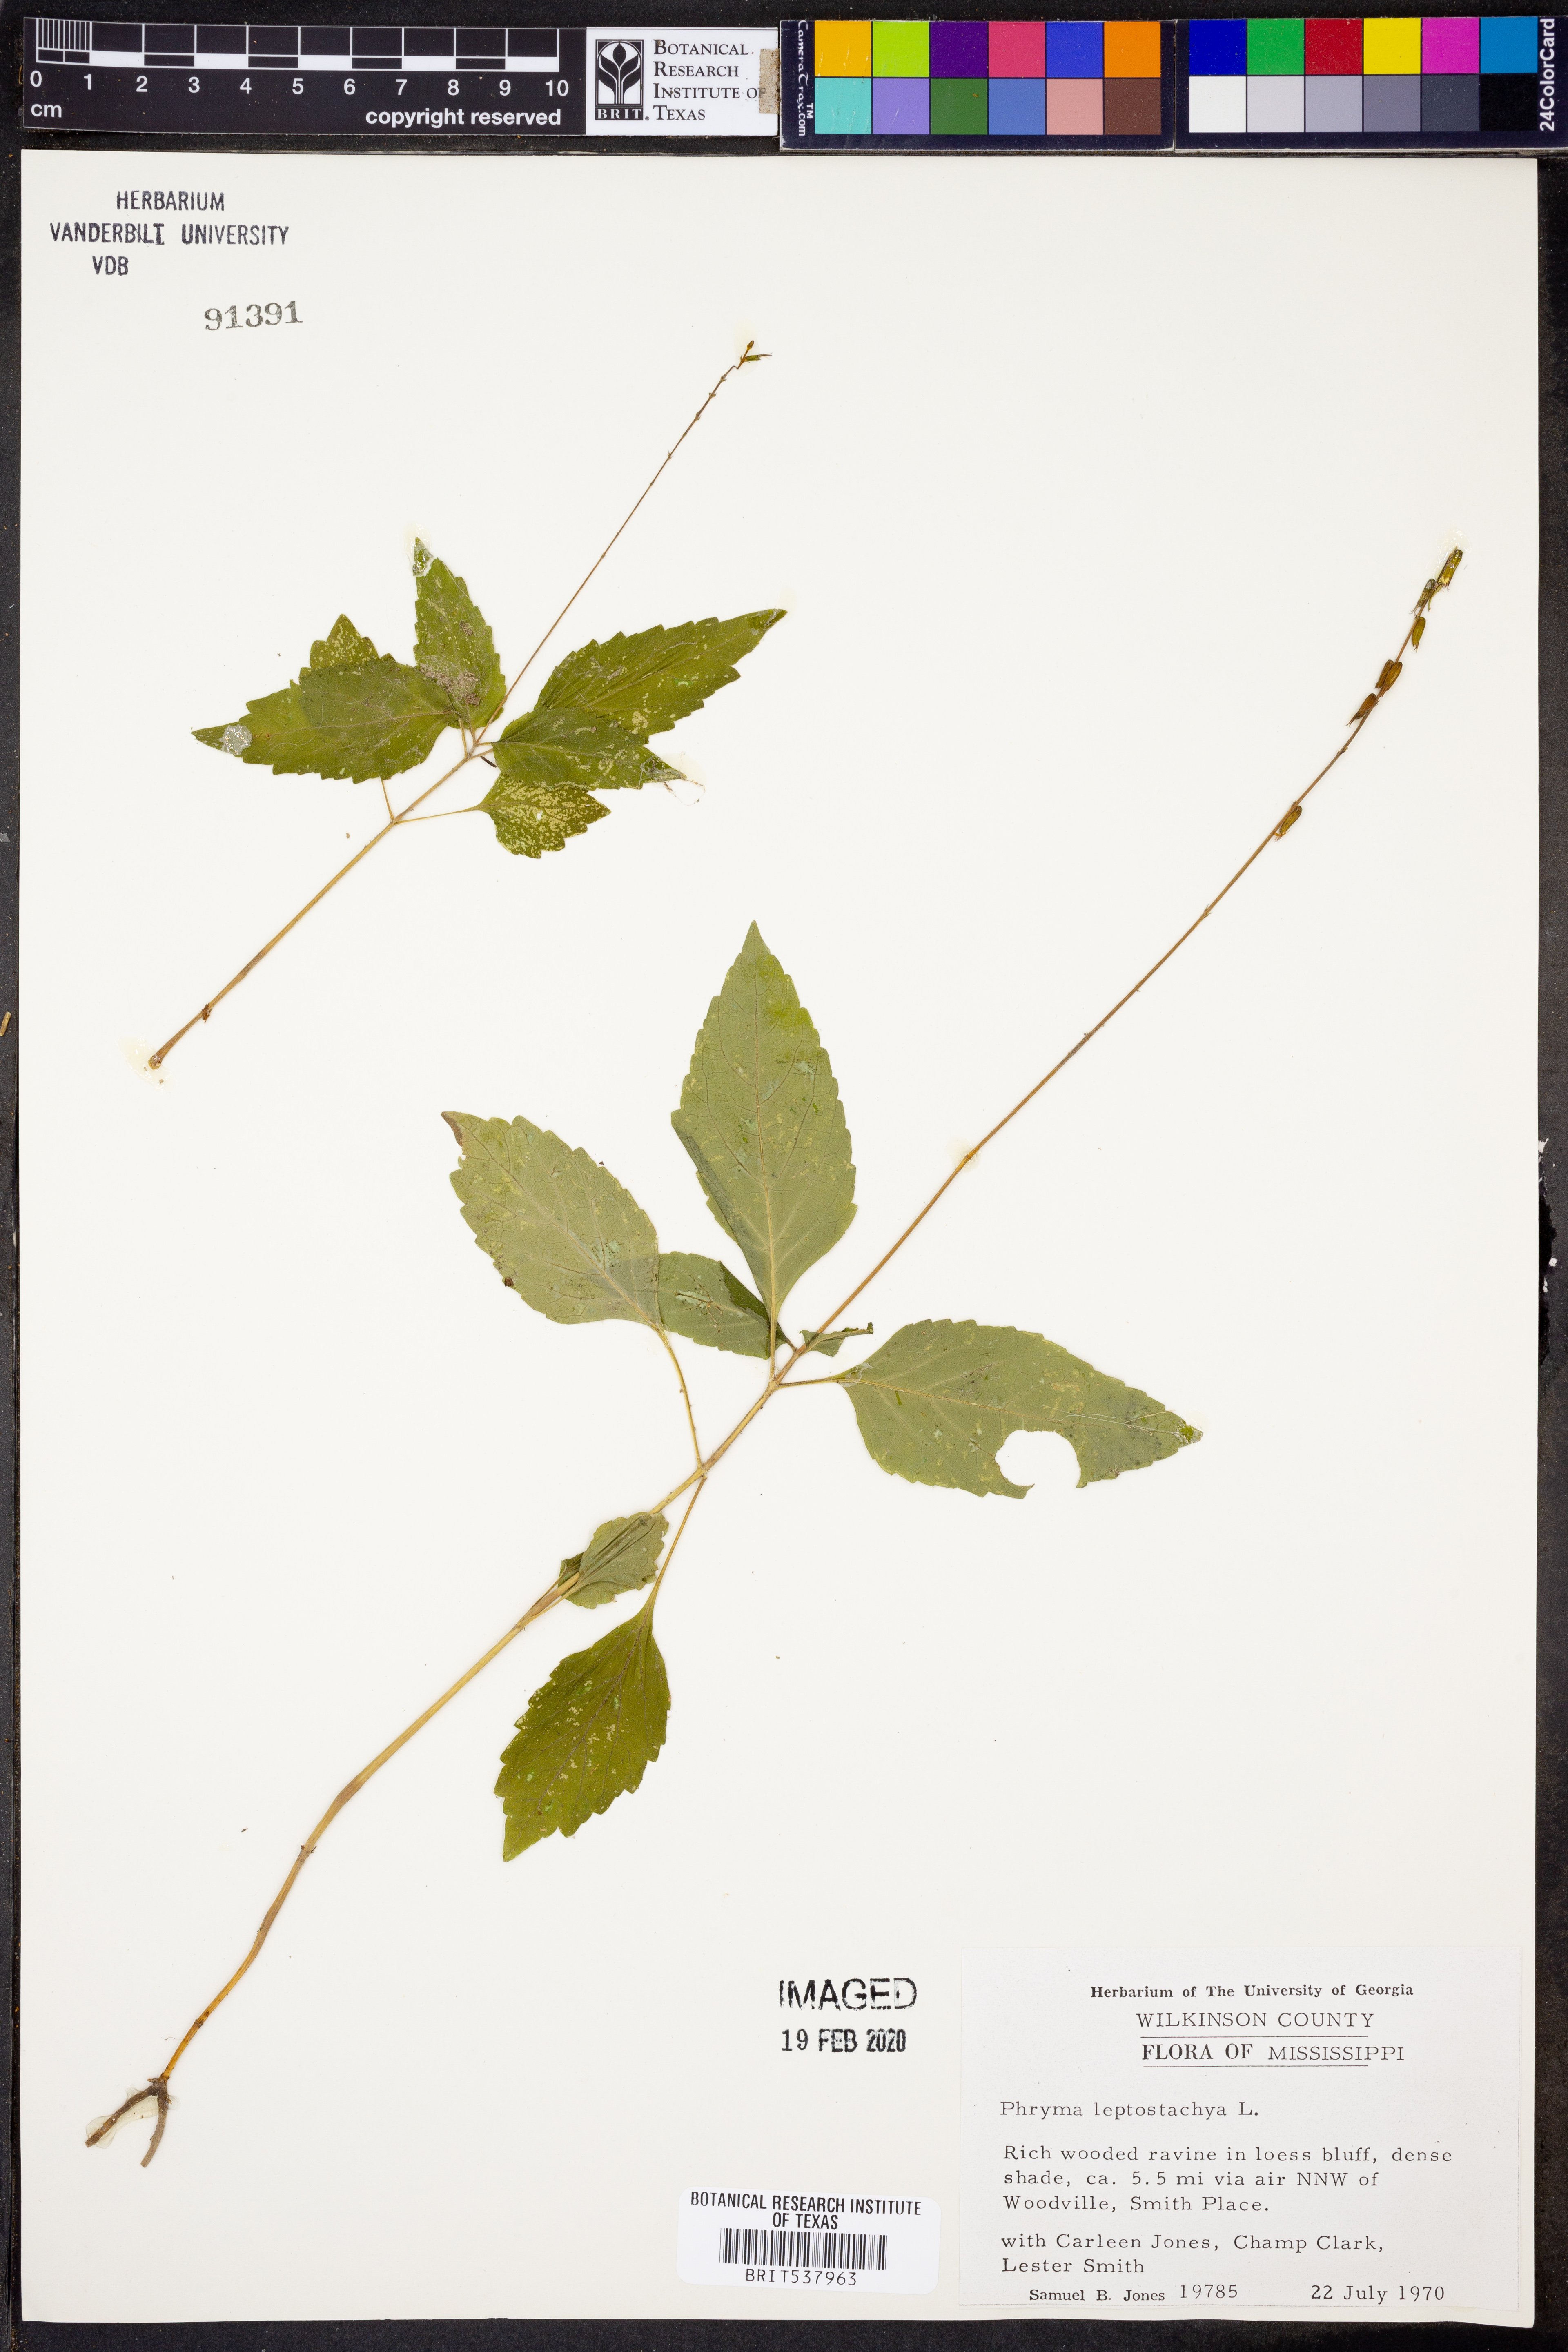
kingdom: Plantae
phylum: Tracheophyta
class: Magnoliopsida
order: Lamiales
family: Phrymaceae
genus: Phryma
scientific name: Phryma leptostachya
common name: American lopseed
